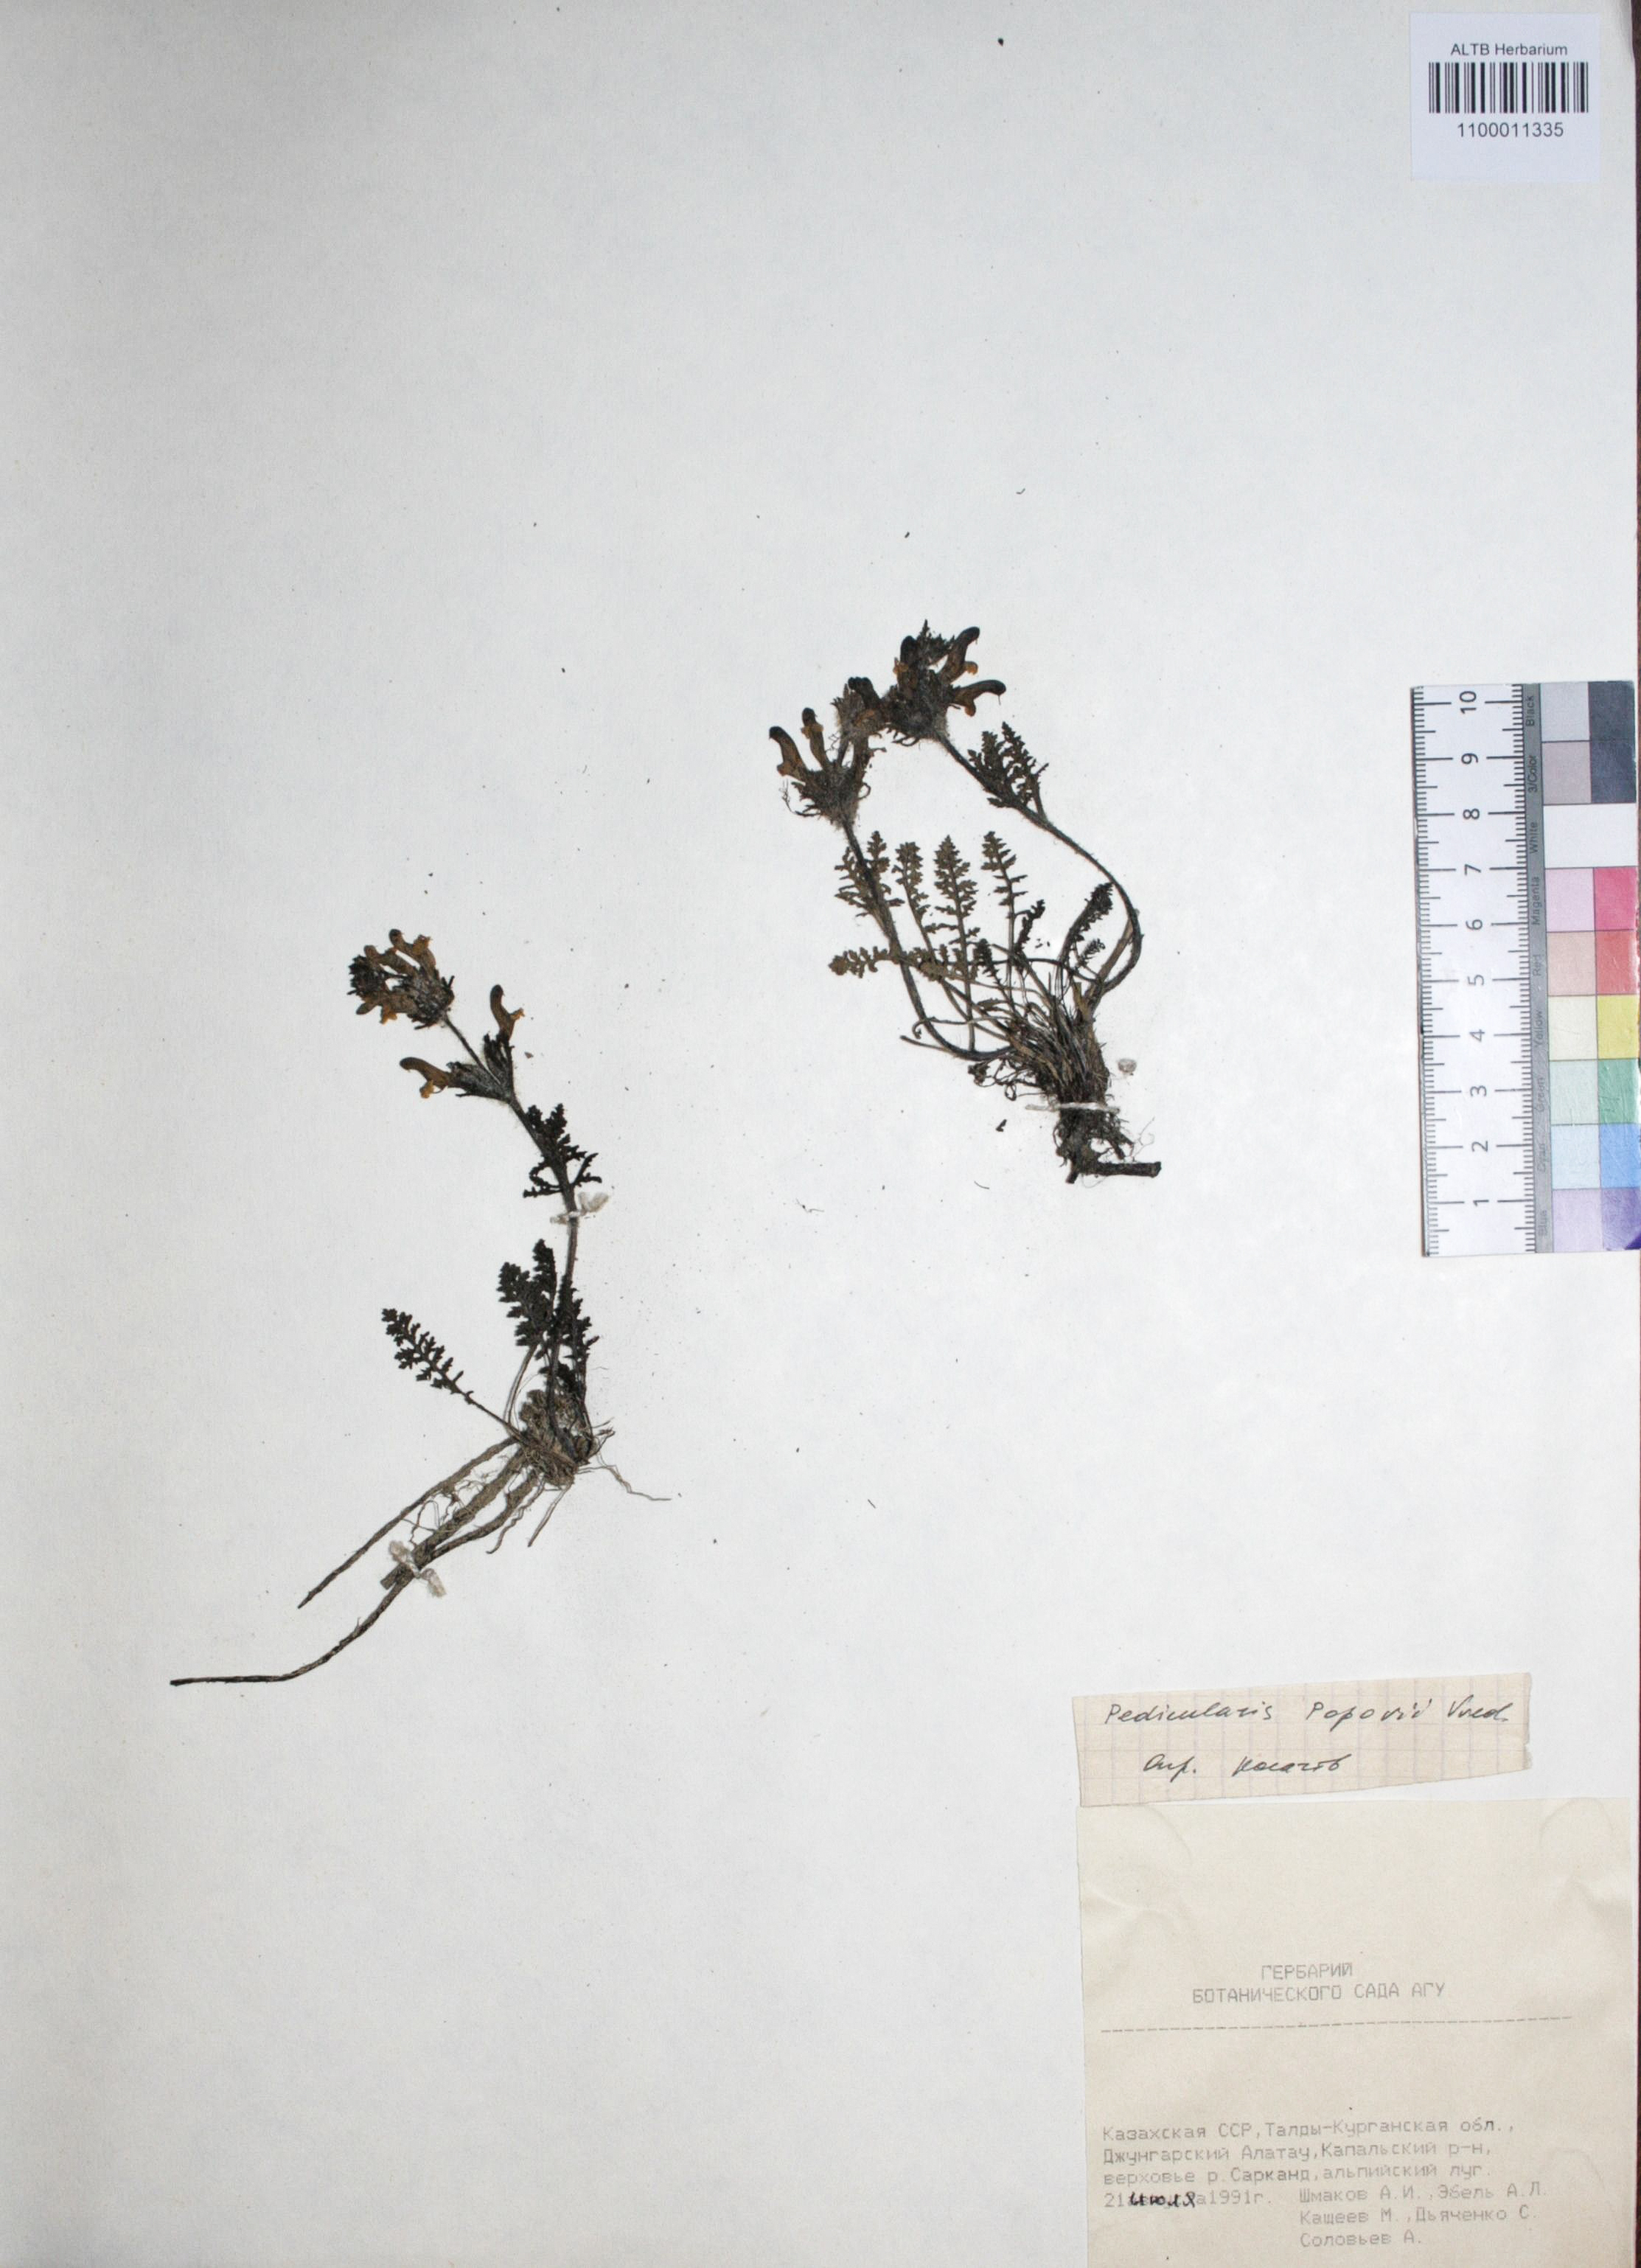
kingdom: Plantae
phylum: Tracheophyta
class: Magnoliopsida
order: Caryophyllales
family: Caryophyllaceae
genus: Silene
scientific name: Silene graminifolia
